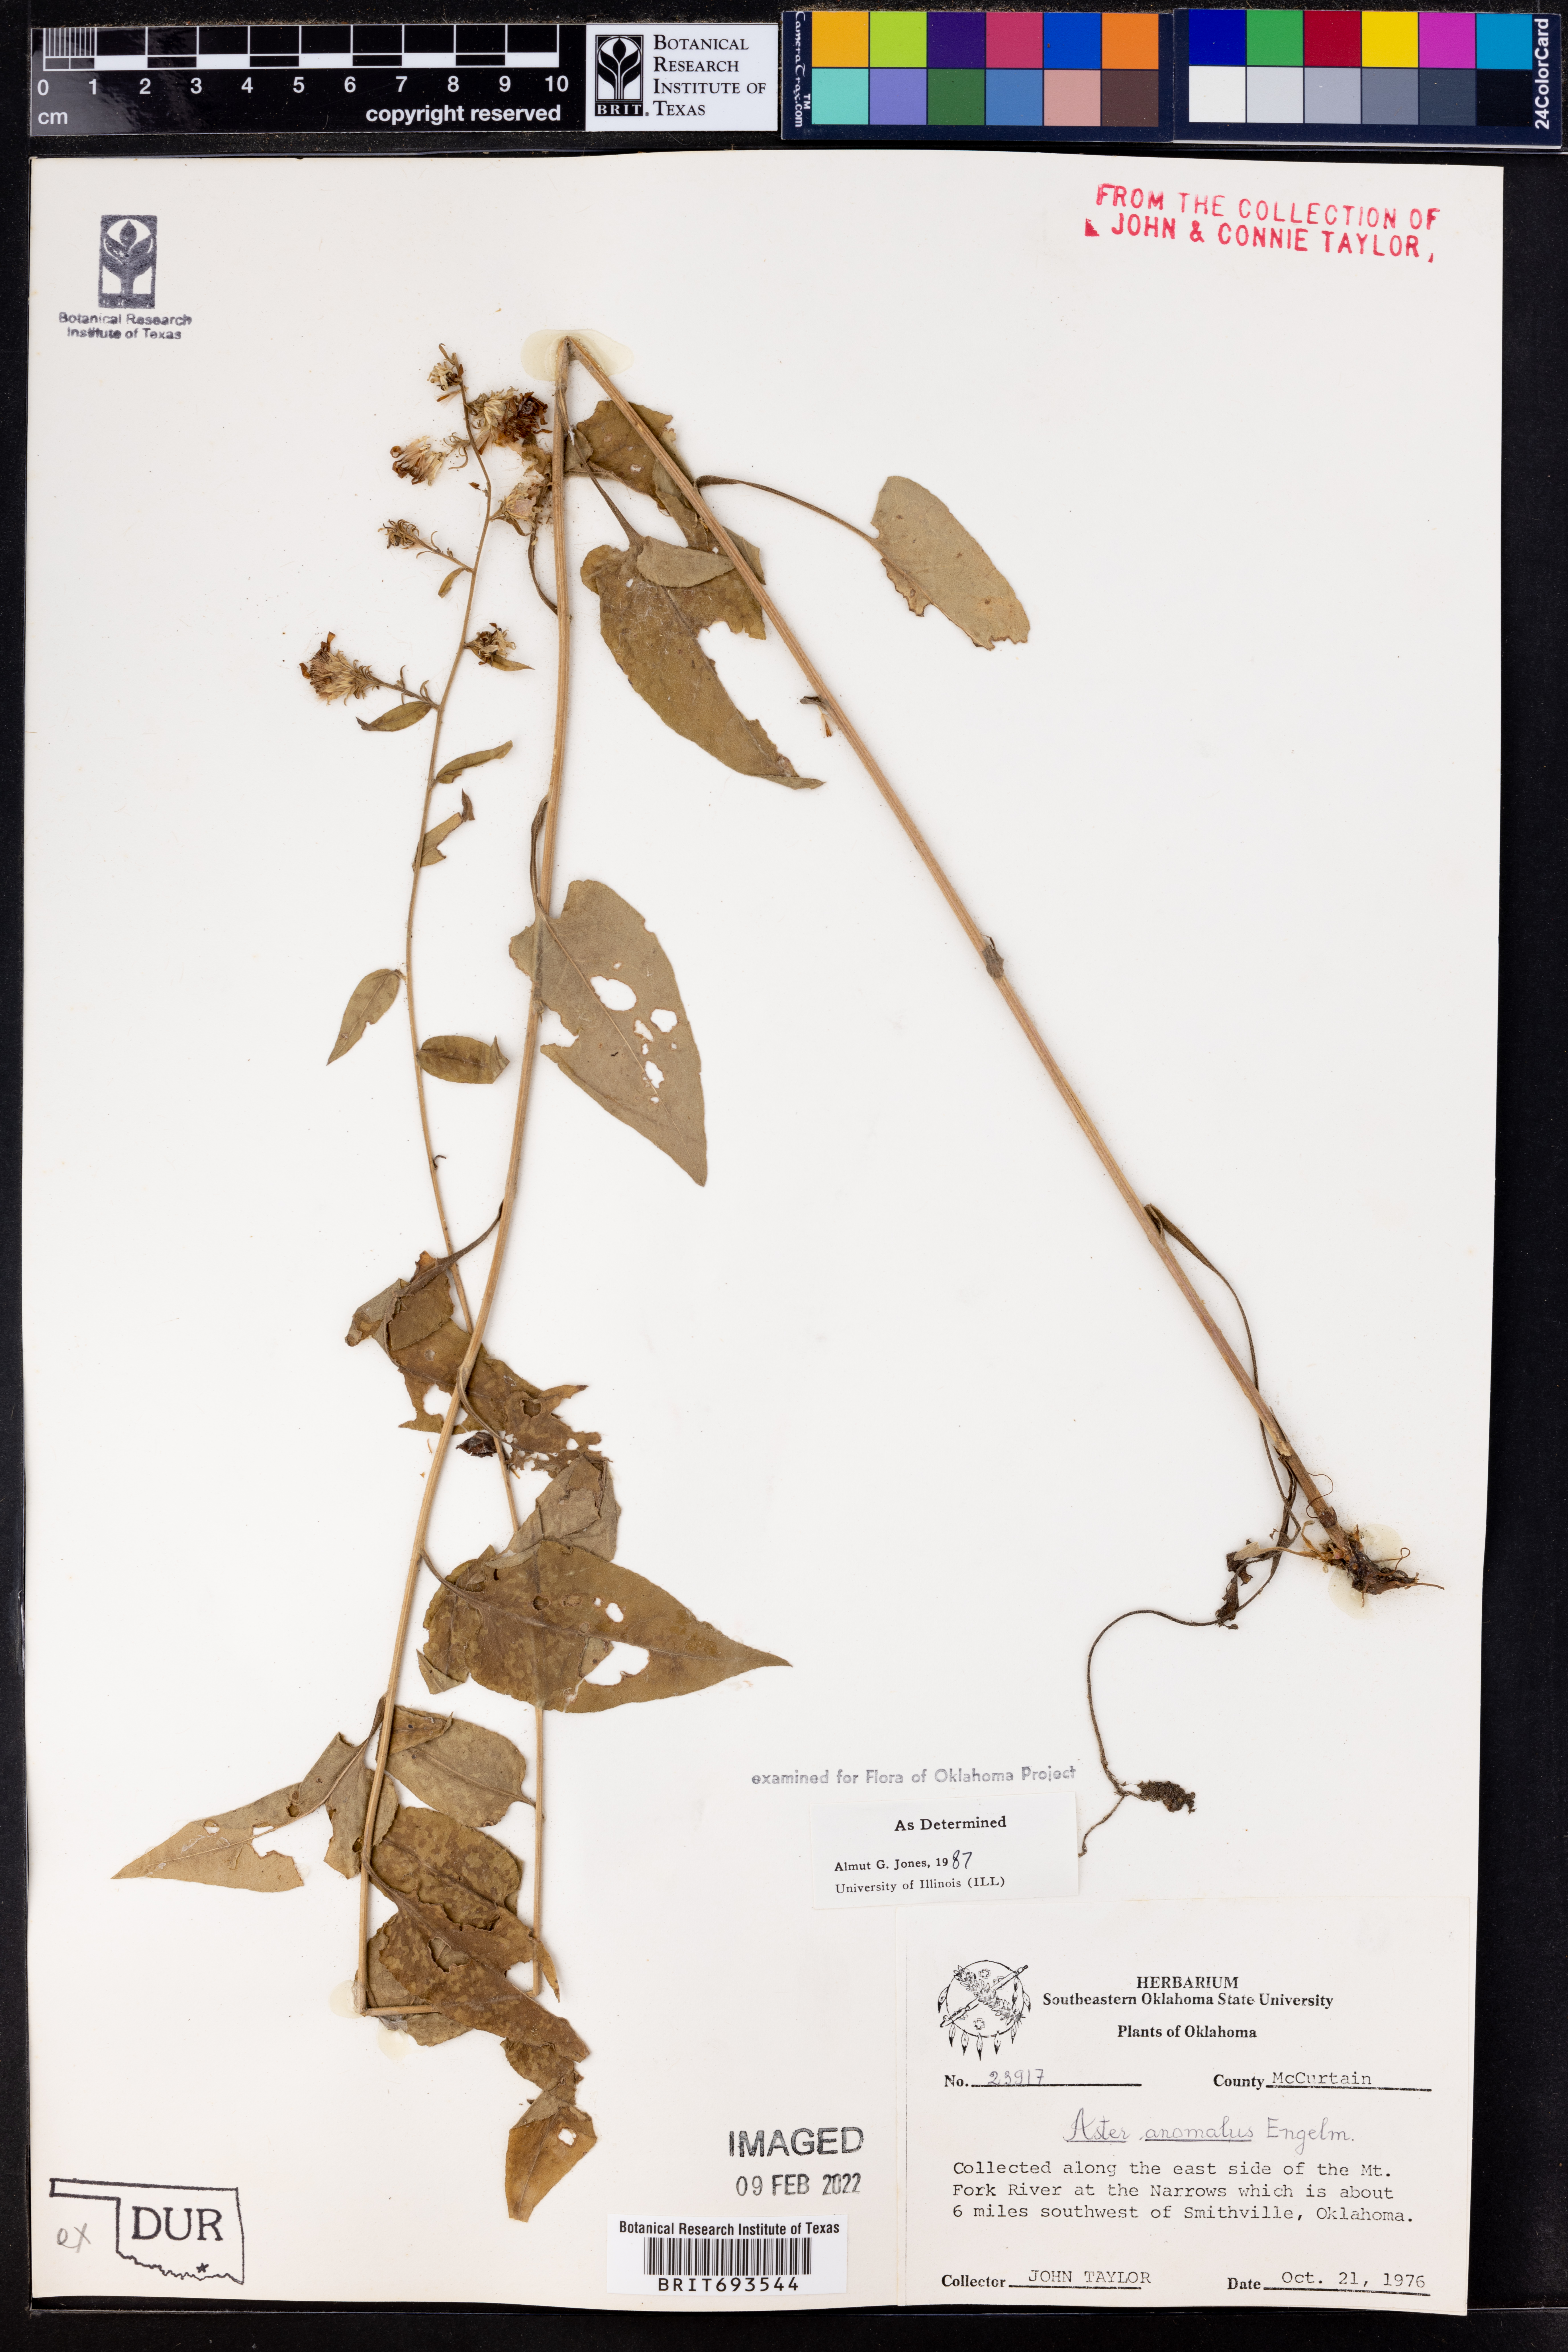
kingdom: Plantae
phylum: Tracheophyta
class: Magnoliopsida
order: Asterales
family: Asteraceae
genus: Symphyotrichum
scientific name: Symphyotrichum anomalum
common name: Many-ray aster
